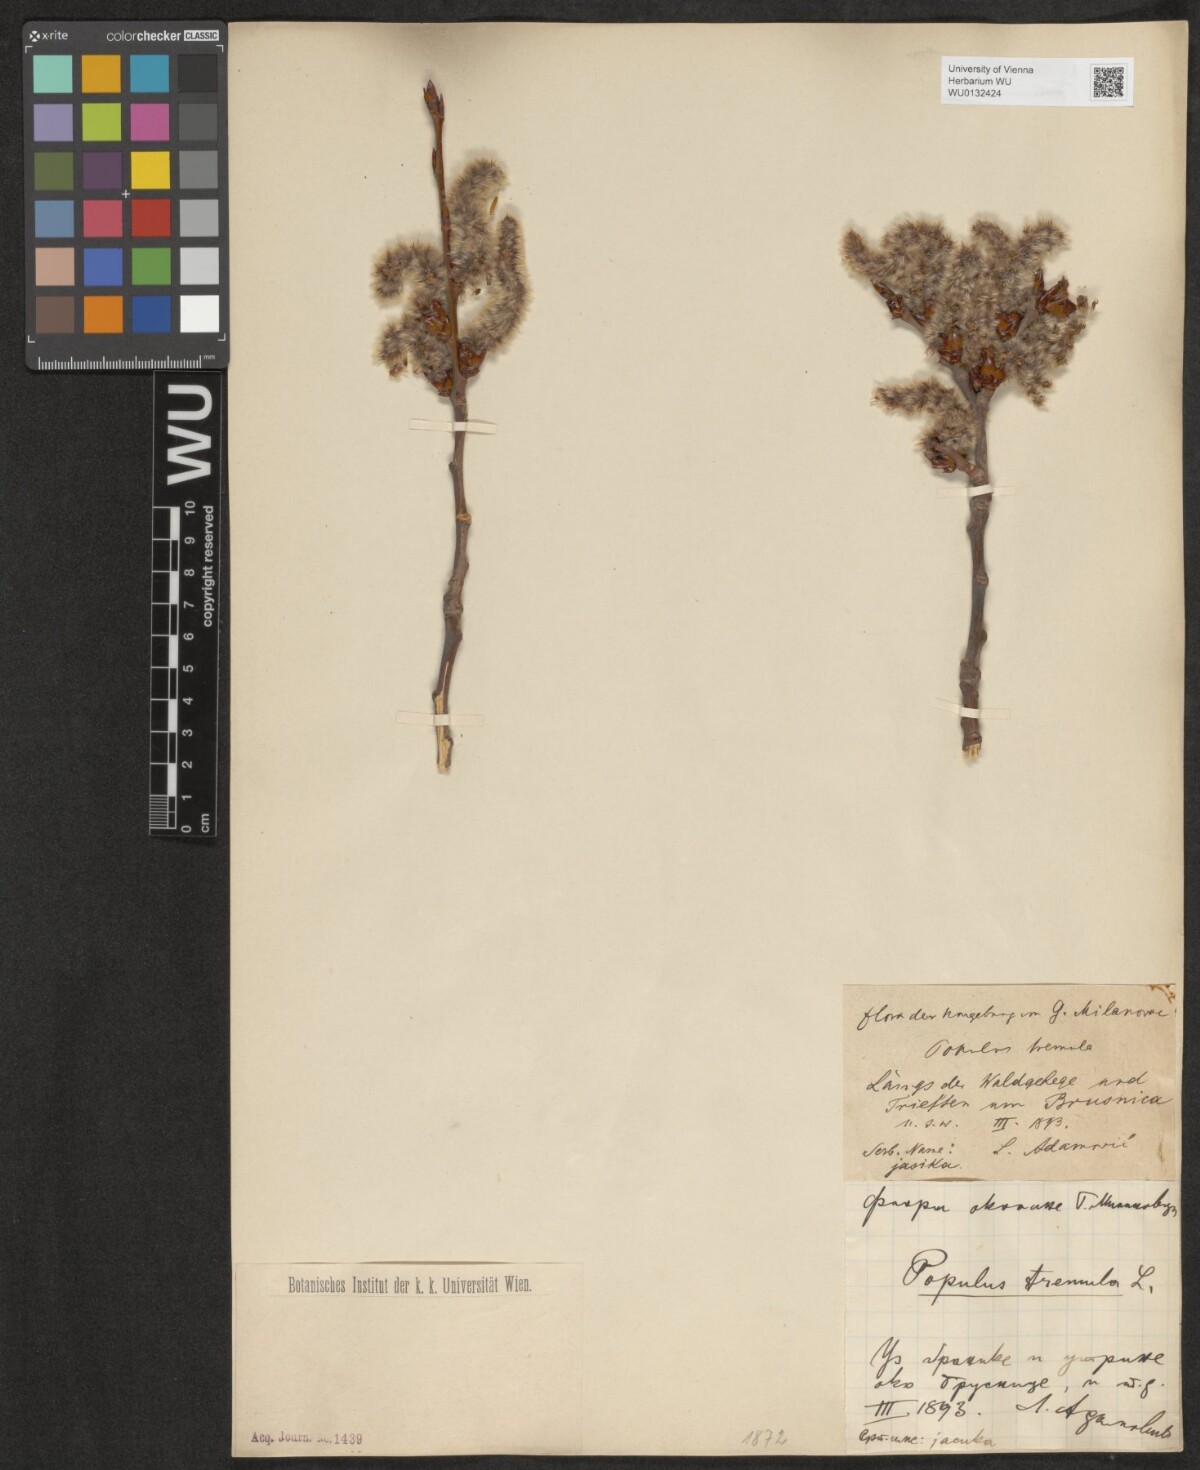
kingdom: Plantae
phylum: Tracheophyta
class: Magnoliopsida
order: Malpighiales
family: Salicaceae
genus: Populus
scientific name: Populus tremula
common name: European aspen
